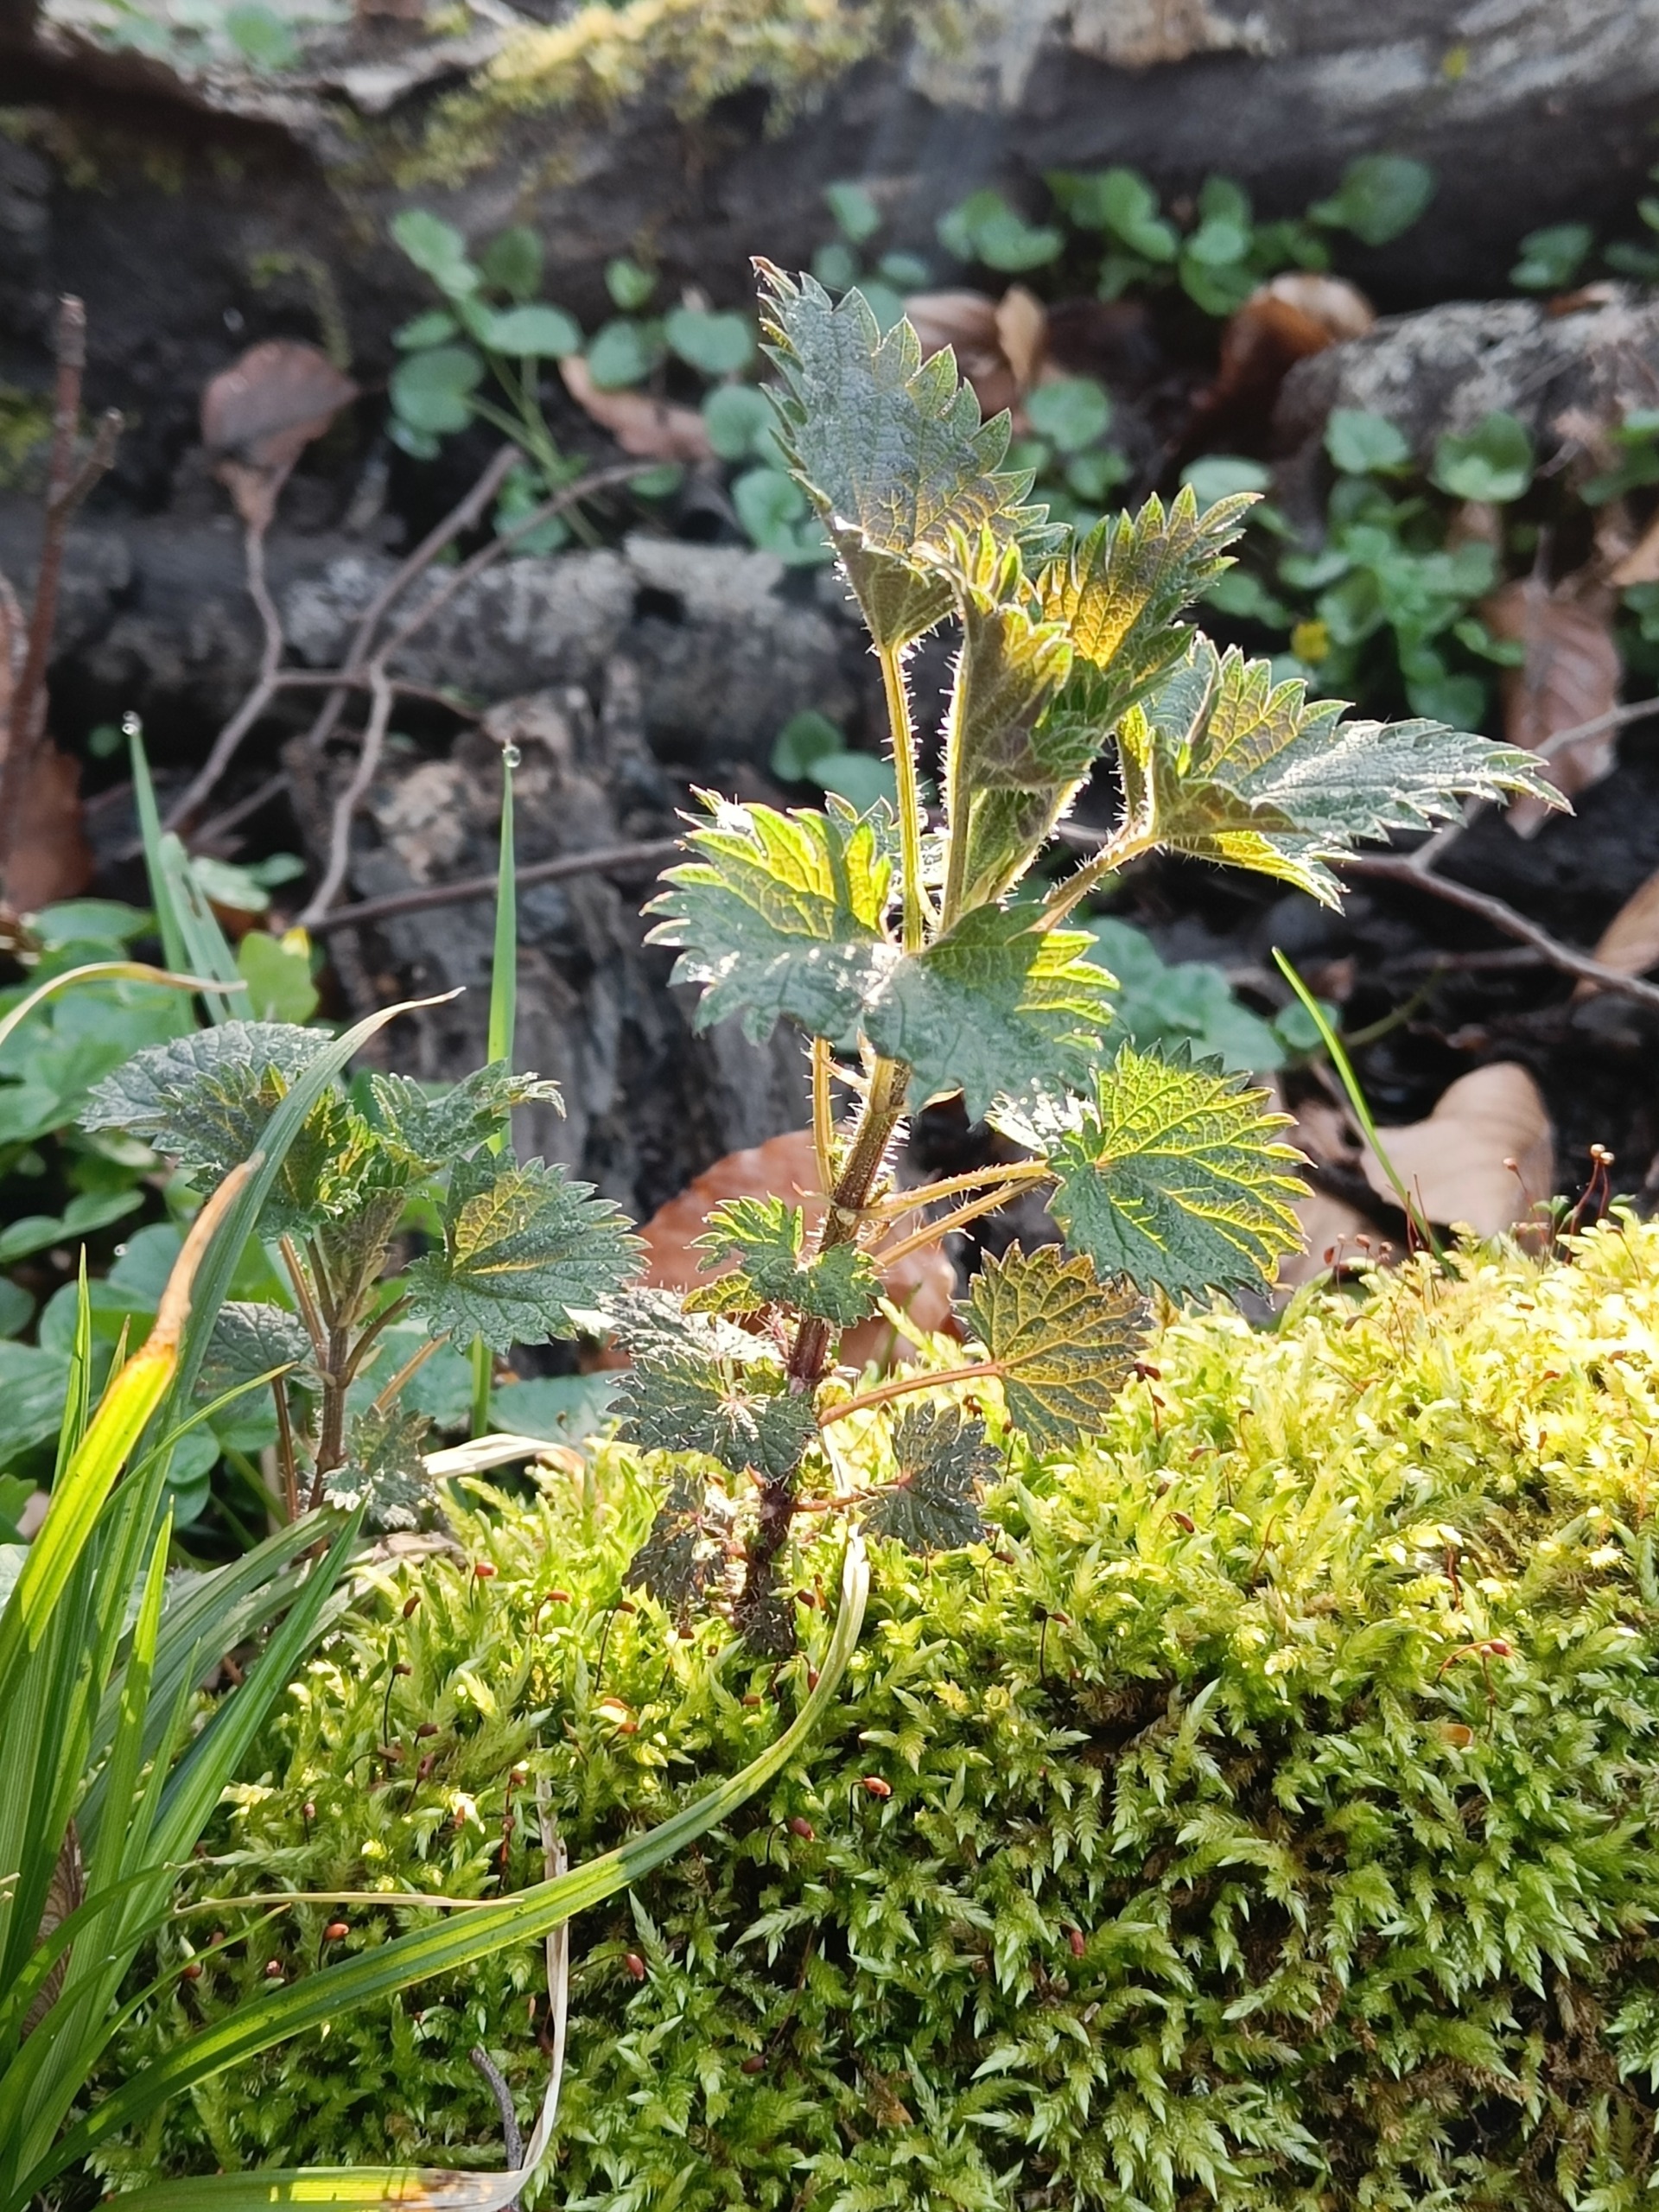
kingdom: Plantae
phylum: Tracheophyta
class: Magnoliopsida
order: Rosales
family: Urticaceae
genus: Urtica
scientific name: Urtica dioica
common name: Stor nælde
